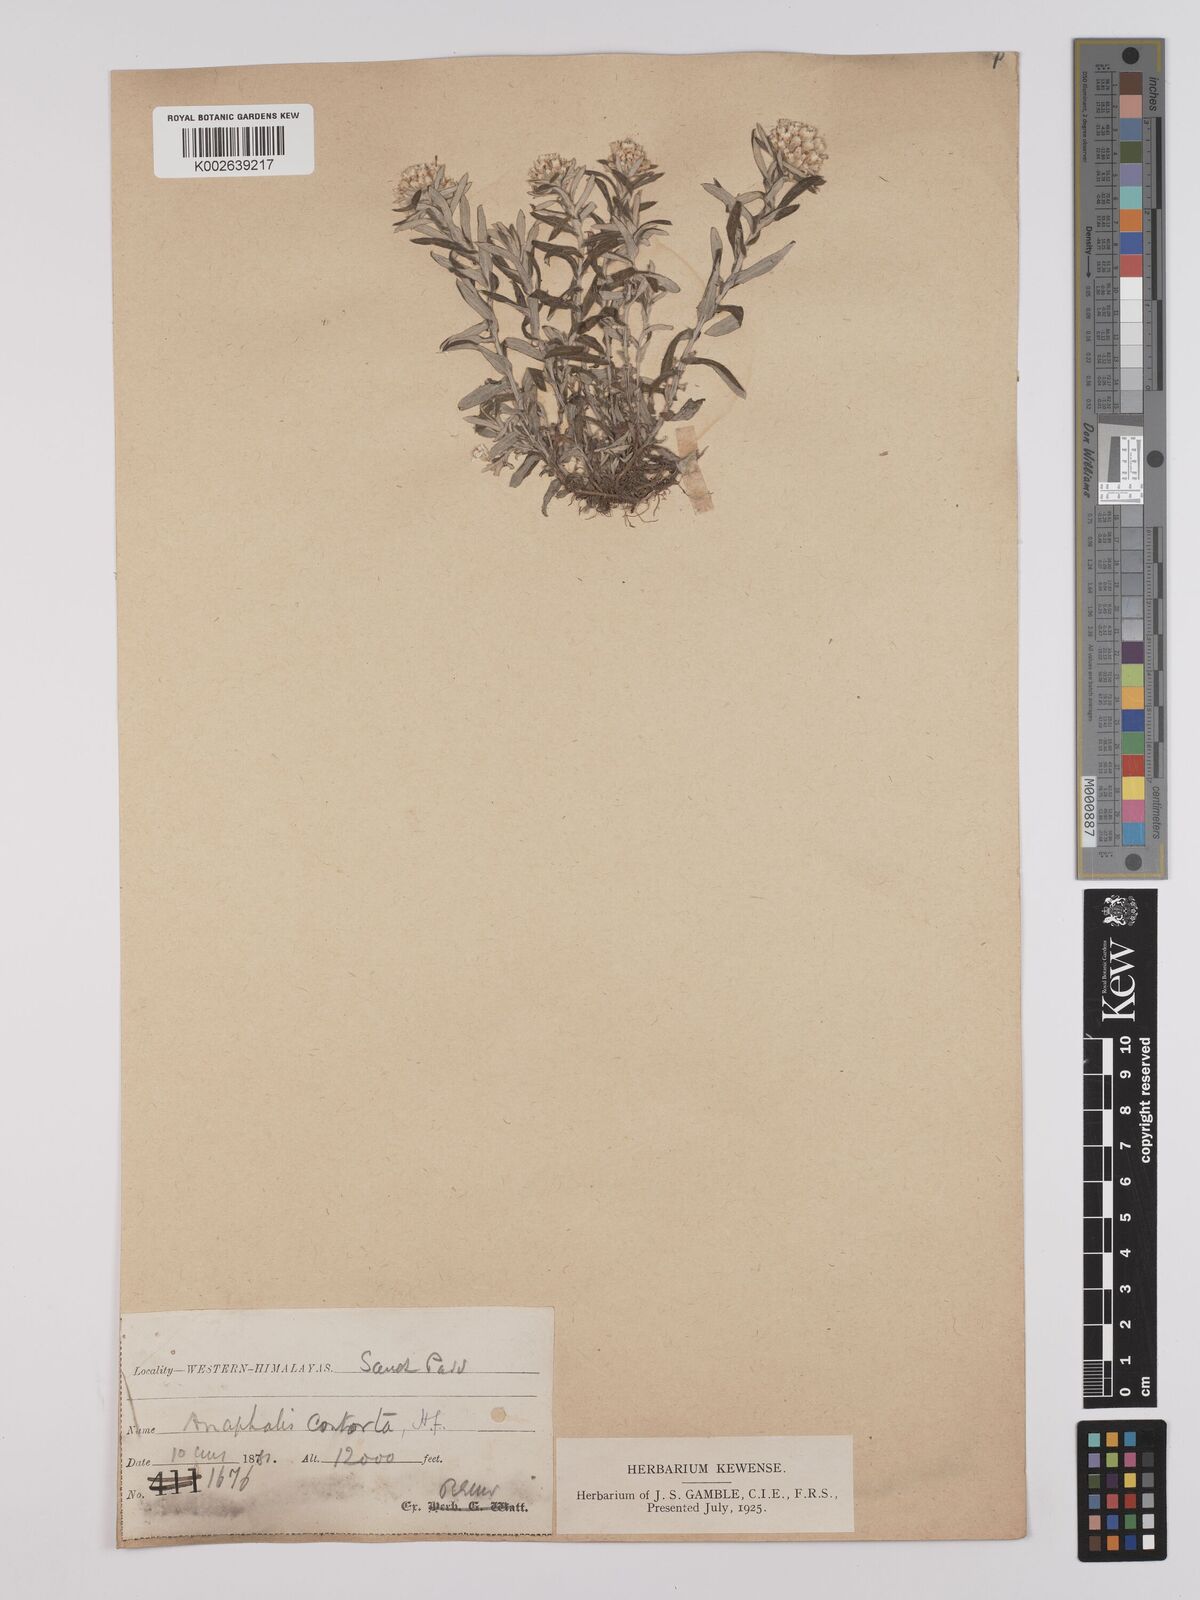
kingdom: Plantae
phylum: Tracheophyta
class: Magnoliopsida
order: Asterales
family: Asteraceae
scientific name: Asteraceae
